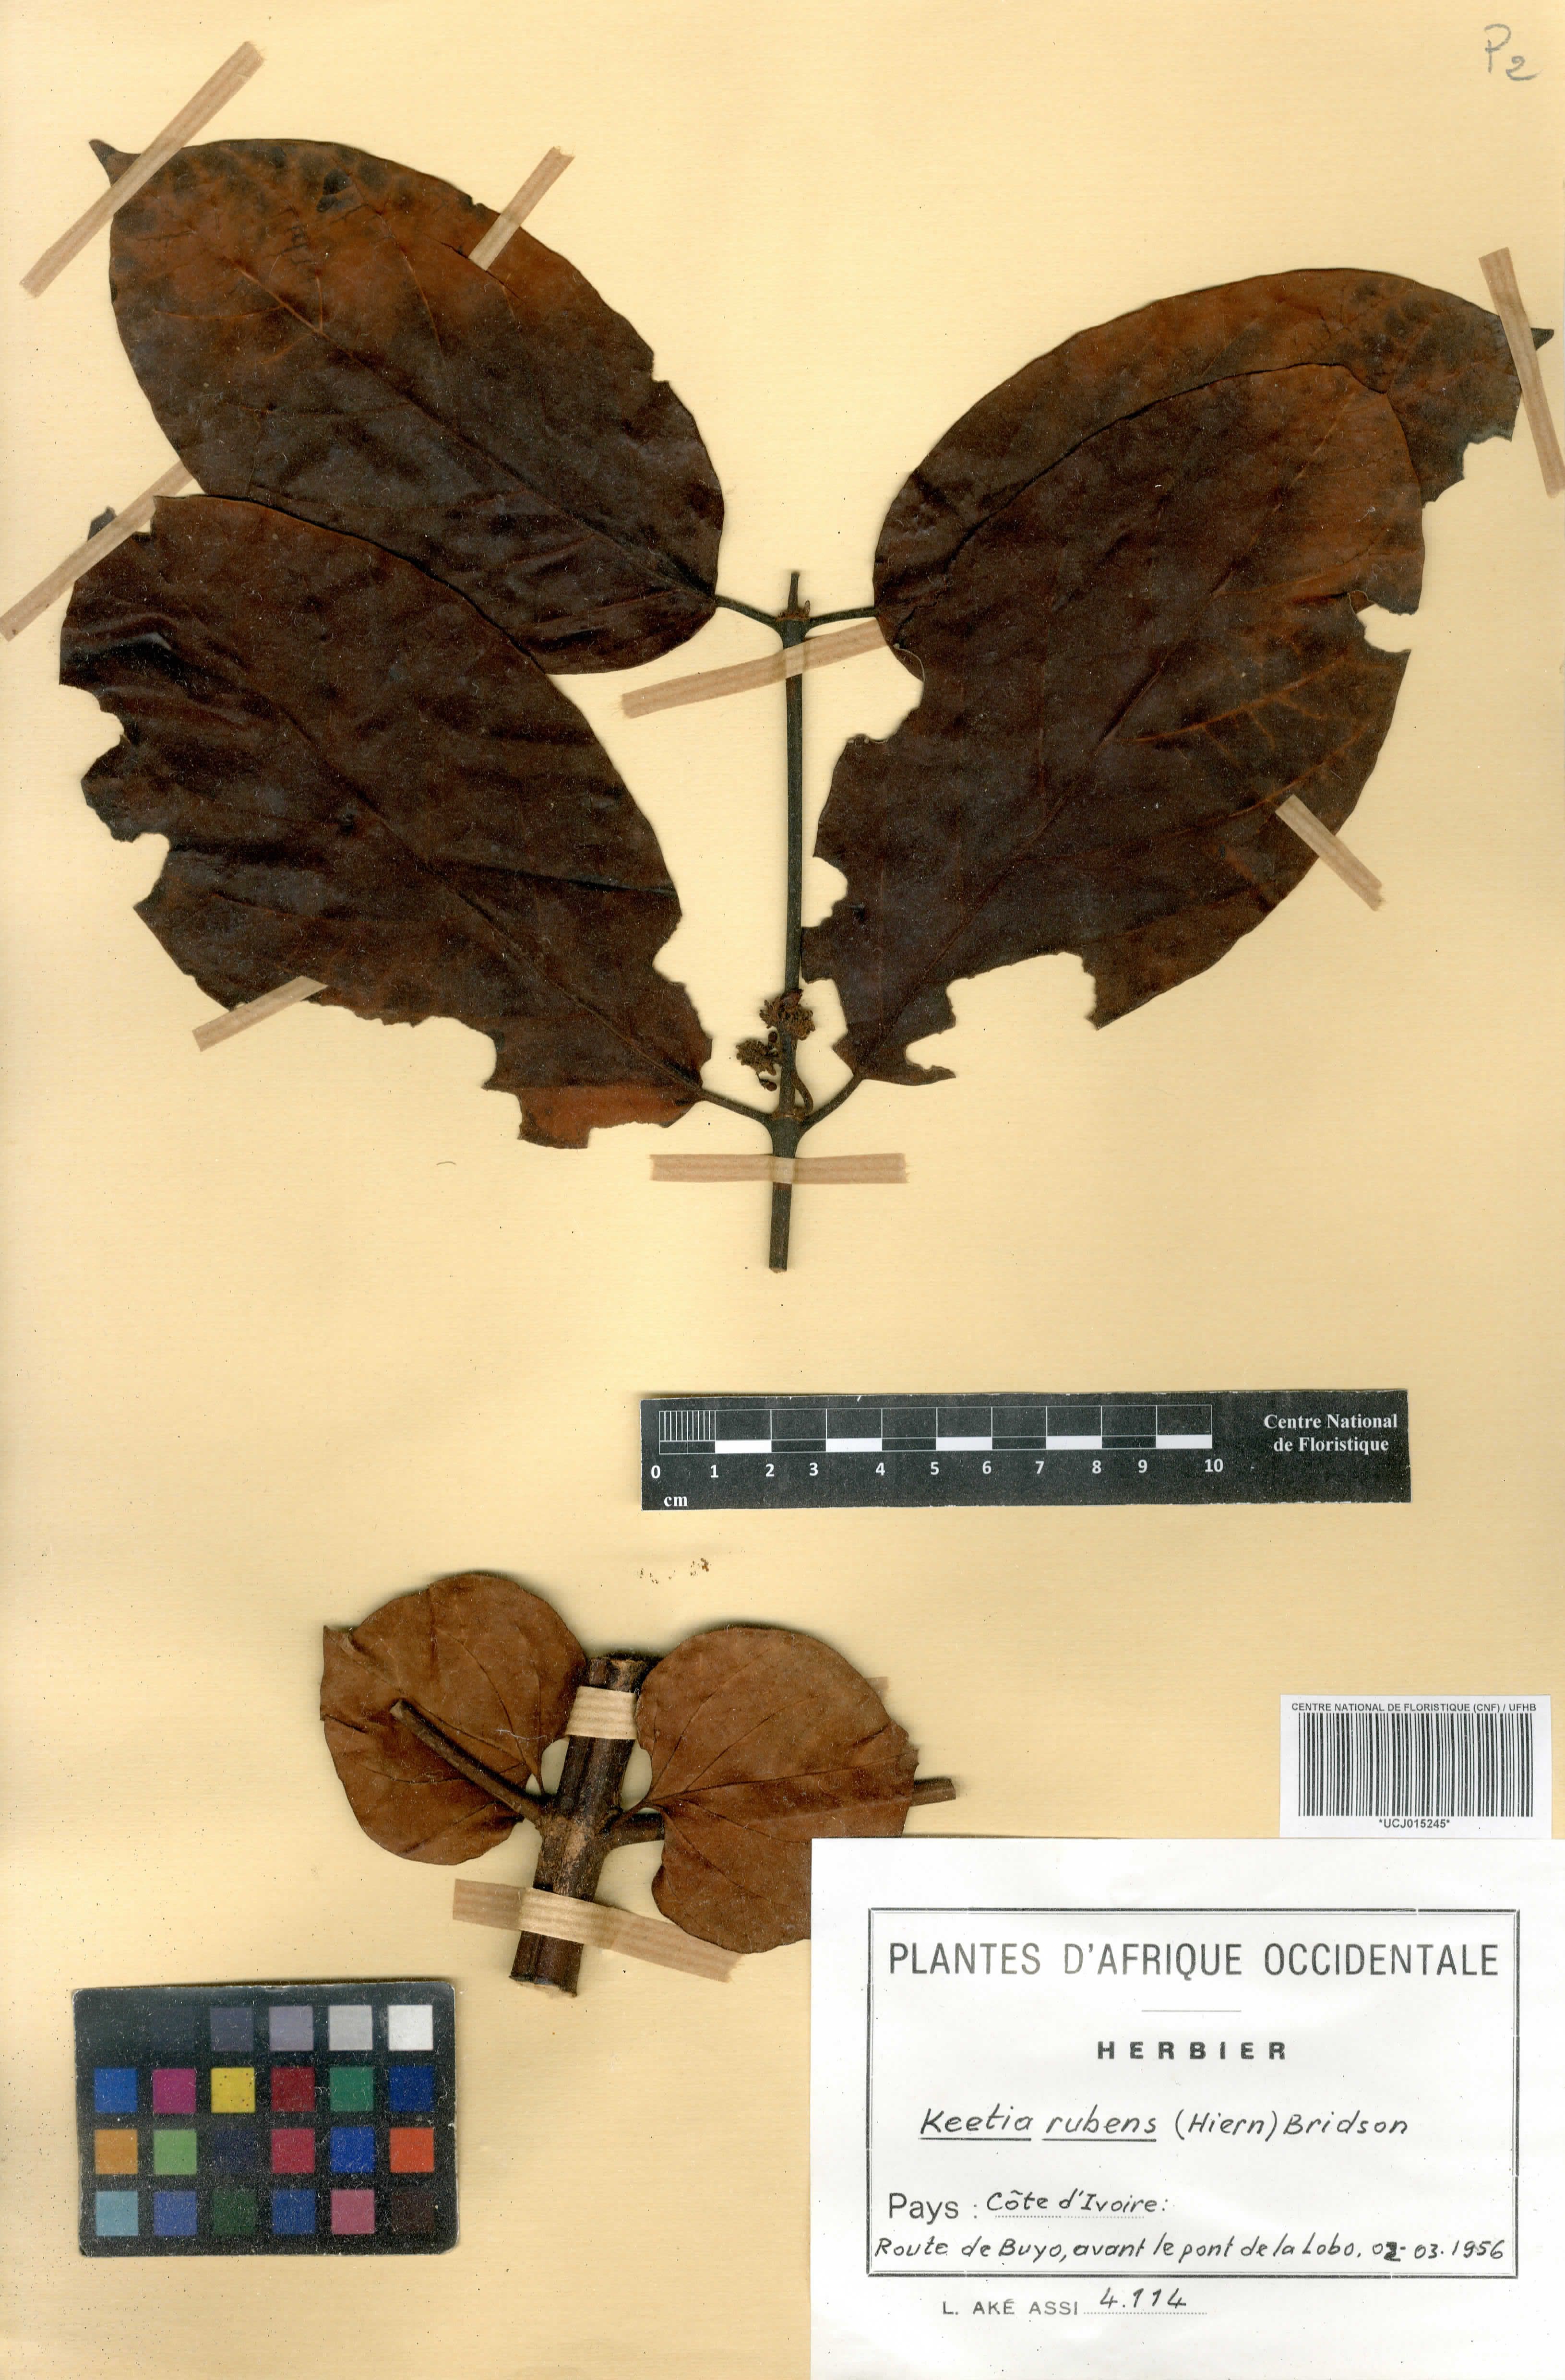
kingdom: Plantae
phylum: Tracheophyta
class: Magnoliopsida
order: Gentianales
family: Rubiaceae
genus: Keetia
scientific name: Keetia rubens
